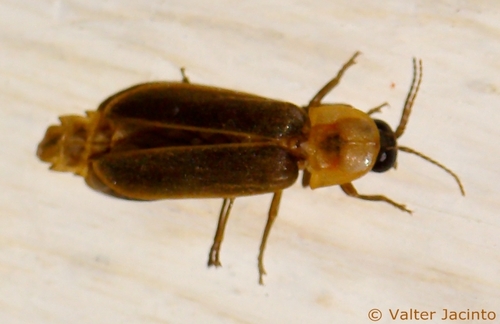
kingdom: Animalia
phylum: Arthropoda
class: Insecta
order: Coleoptera
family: Lampyridae
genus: Nyctophila
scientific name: Nyctophila reichii
